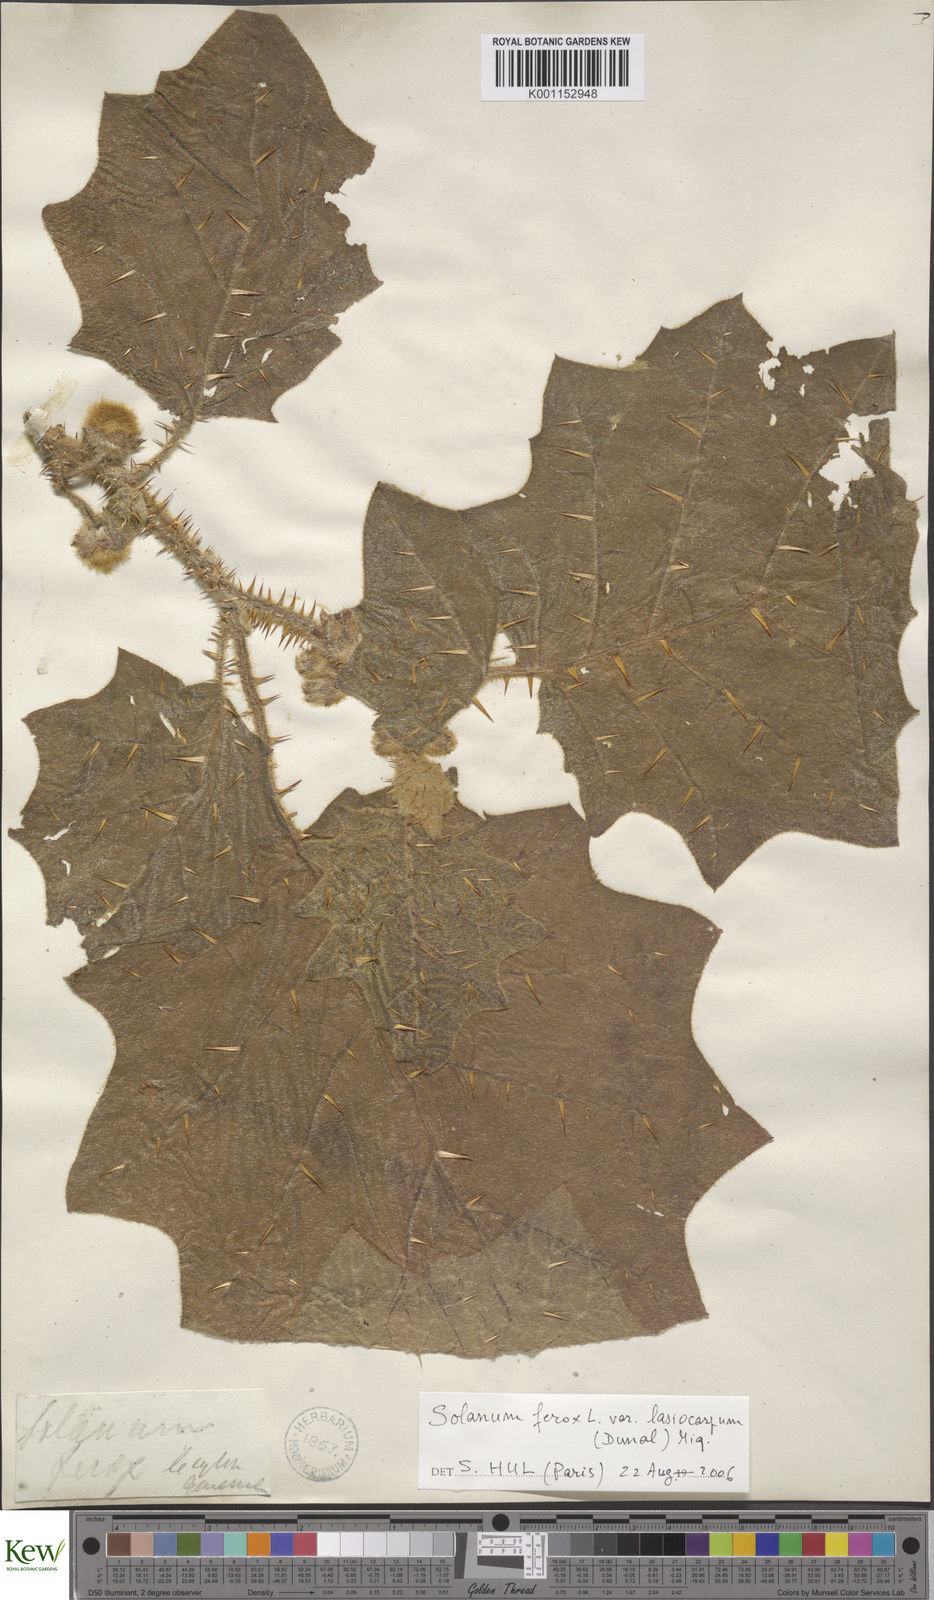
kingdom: Plantae
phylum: Tracheophyta
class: Magnoliopsida
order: Solanales
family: Solanaceae
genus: Solanum
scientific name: Solanum
